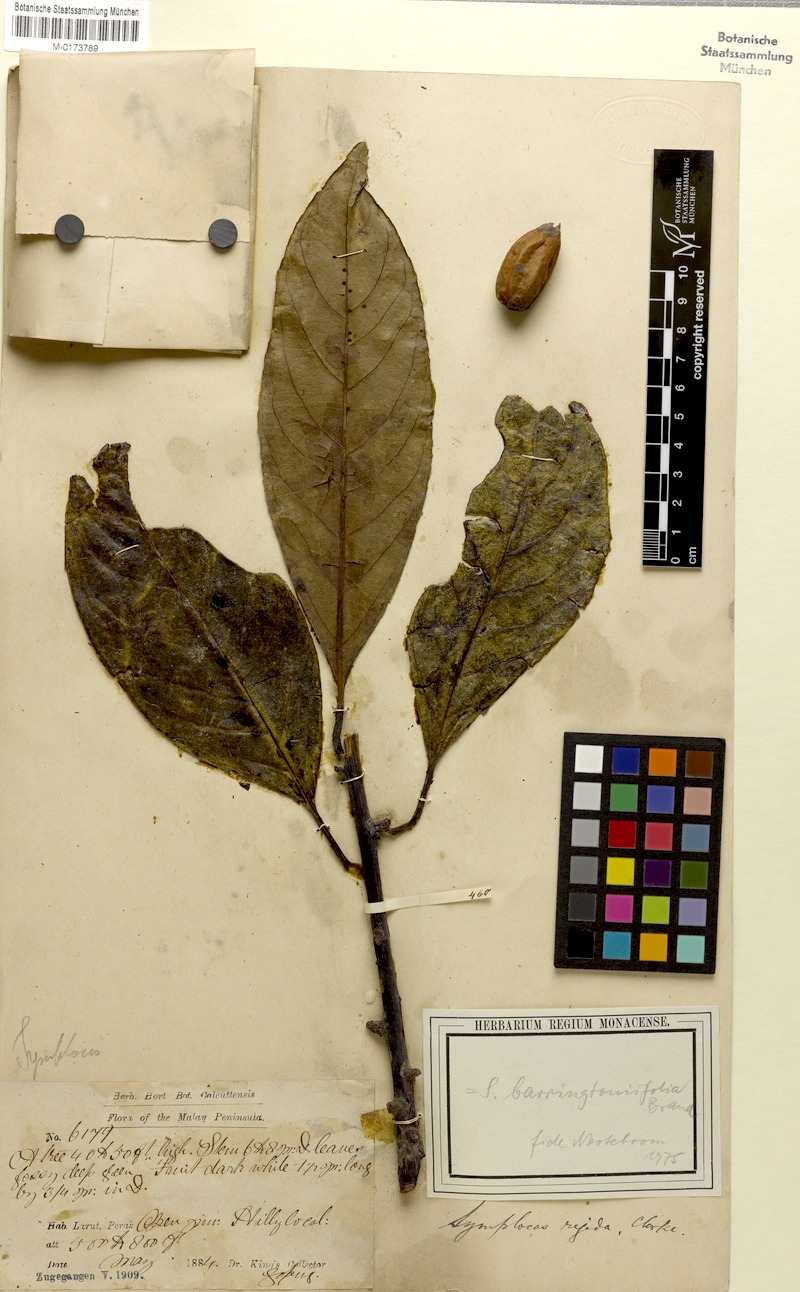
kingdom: Plantae
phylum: Tracheophyta
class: Magnoliopsida
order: Ericales
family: Symplocaceae
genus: Symplocos
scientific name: Symplocos barringtoniifolia
